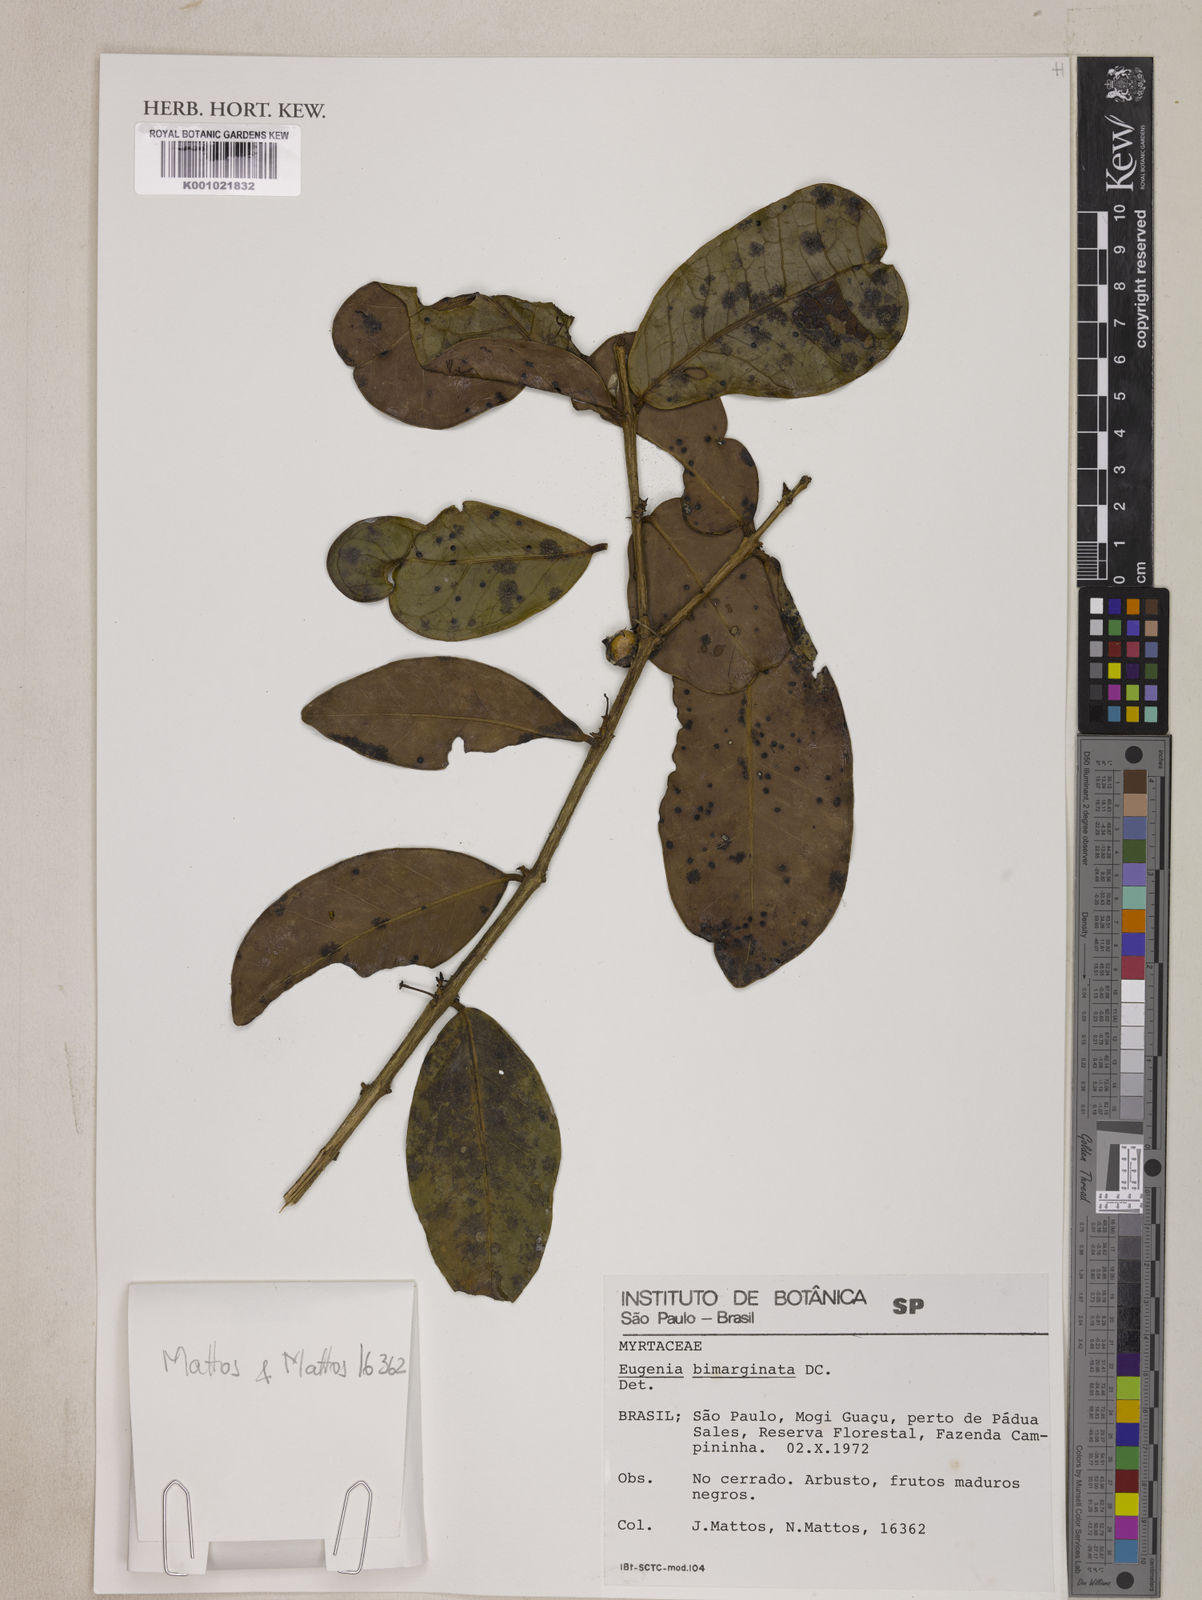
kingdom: Plantae
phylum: Tracheophyta
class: Magnoliopsida
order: Myrtales
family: Myrtaceae
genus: Eugenia
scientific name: Eugenia bimarginata
